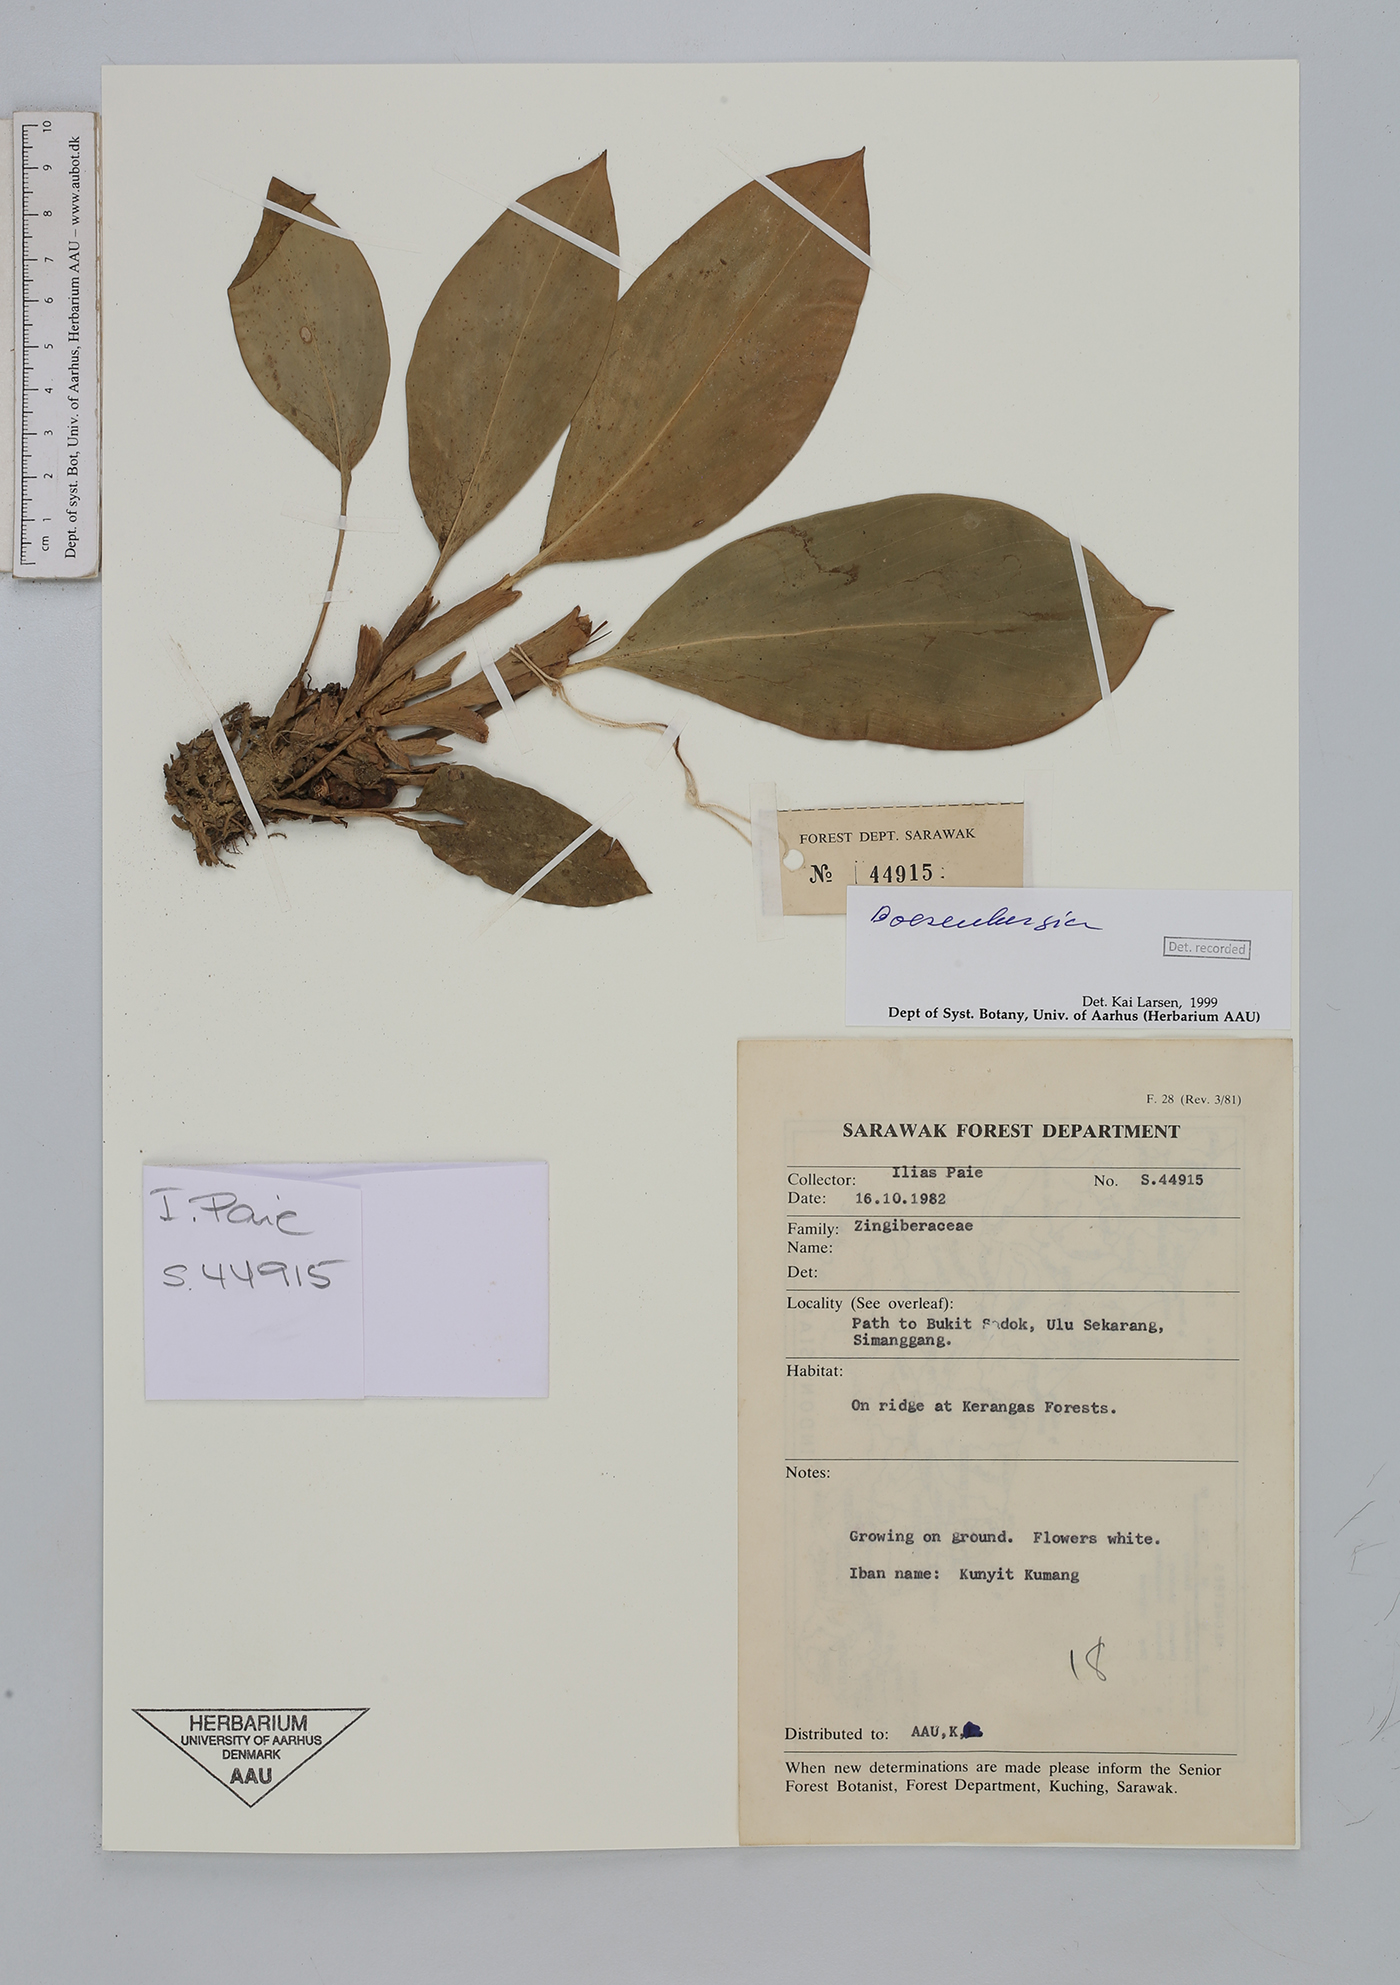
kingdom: Plantae
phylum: Tracheophyta
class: Liliopsida
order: Zingiberales
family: Zingiberaceae
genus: Boesenbergia
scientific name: Boesenbergia
